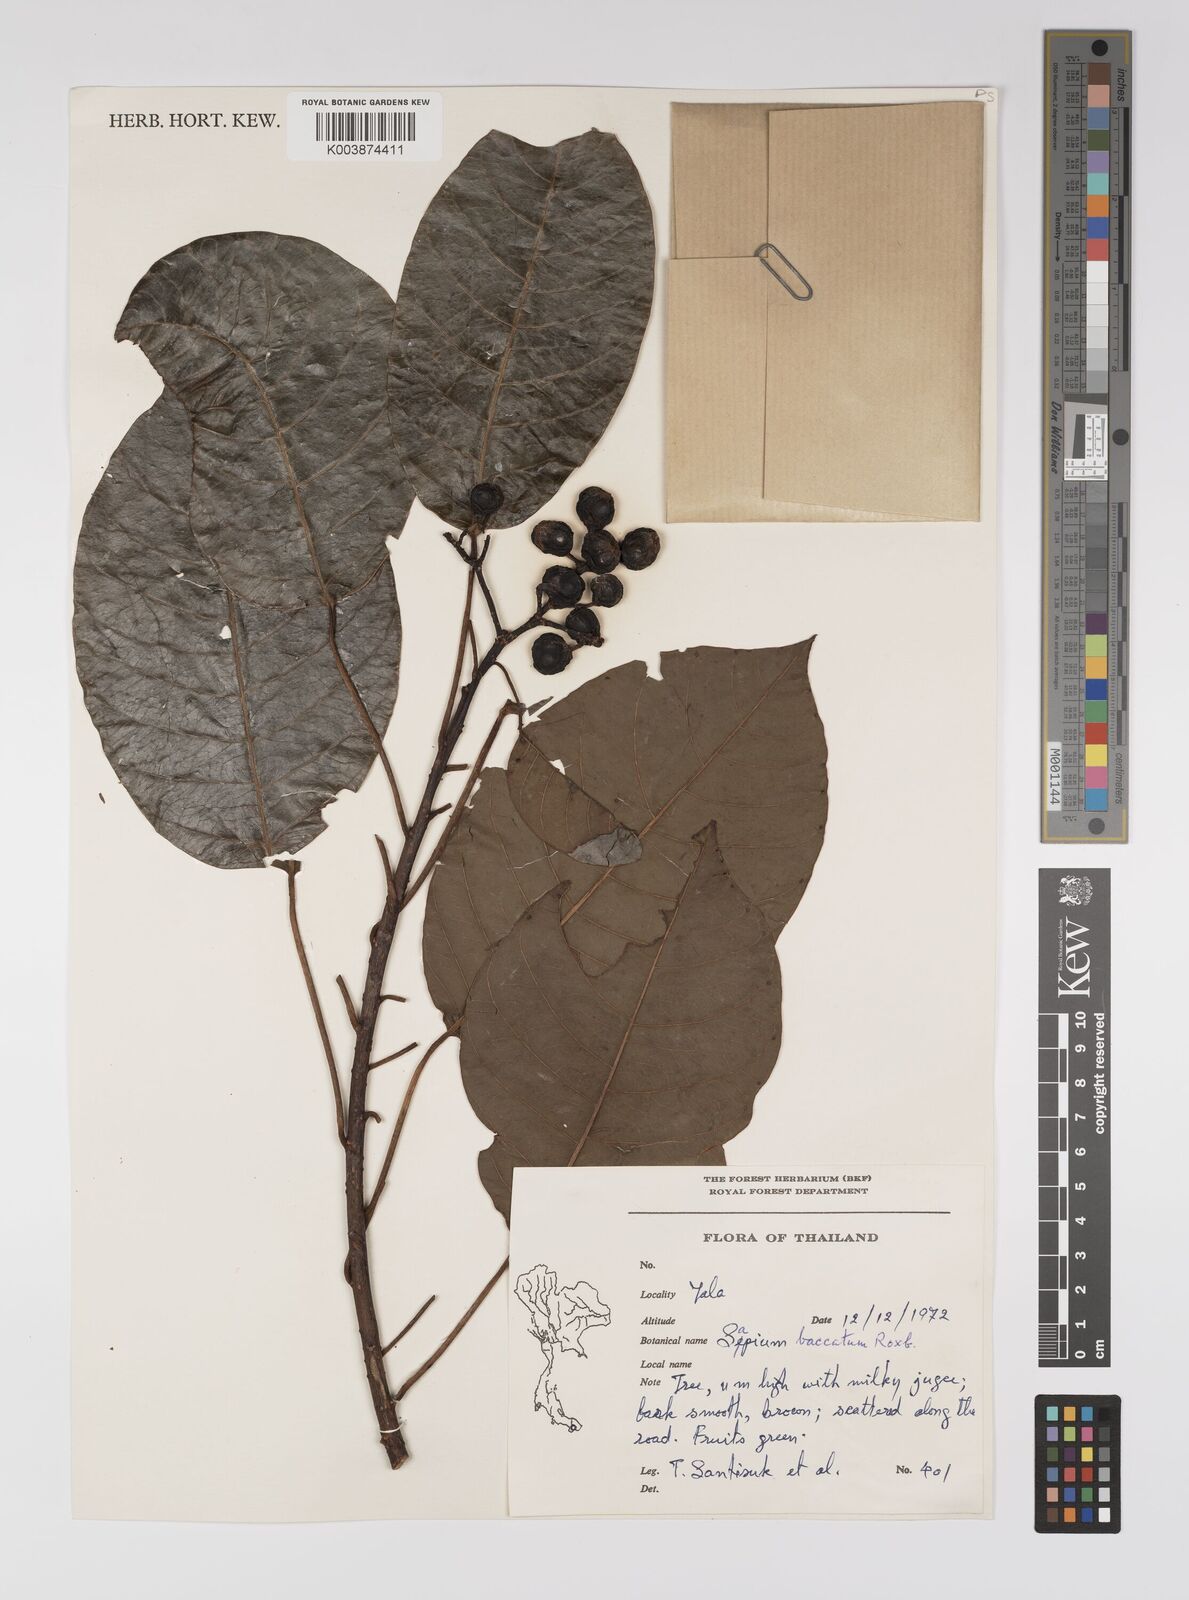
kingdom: Plantae
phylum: Tracheophyta
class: Magnoliopsida
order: Malpighiales
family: Euphorbiaceae
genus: Balakata
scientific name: Balakata baccata
